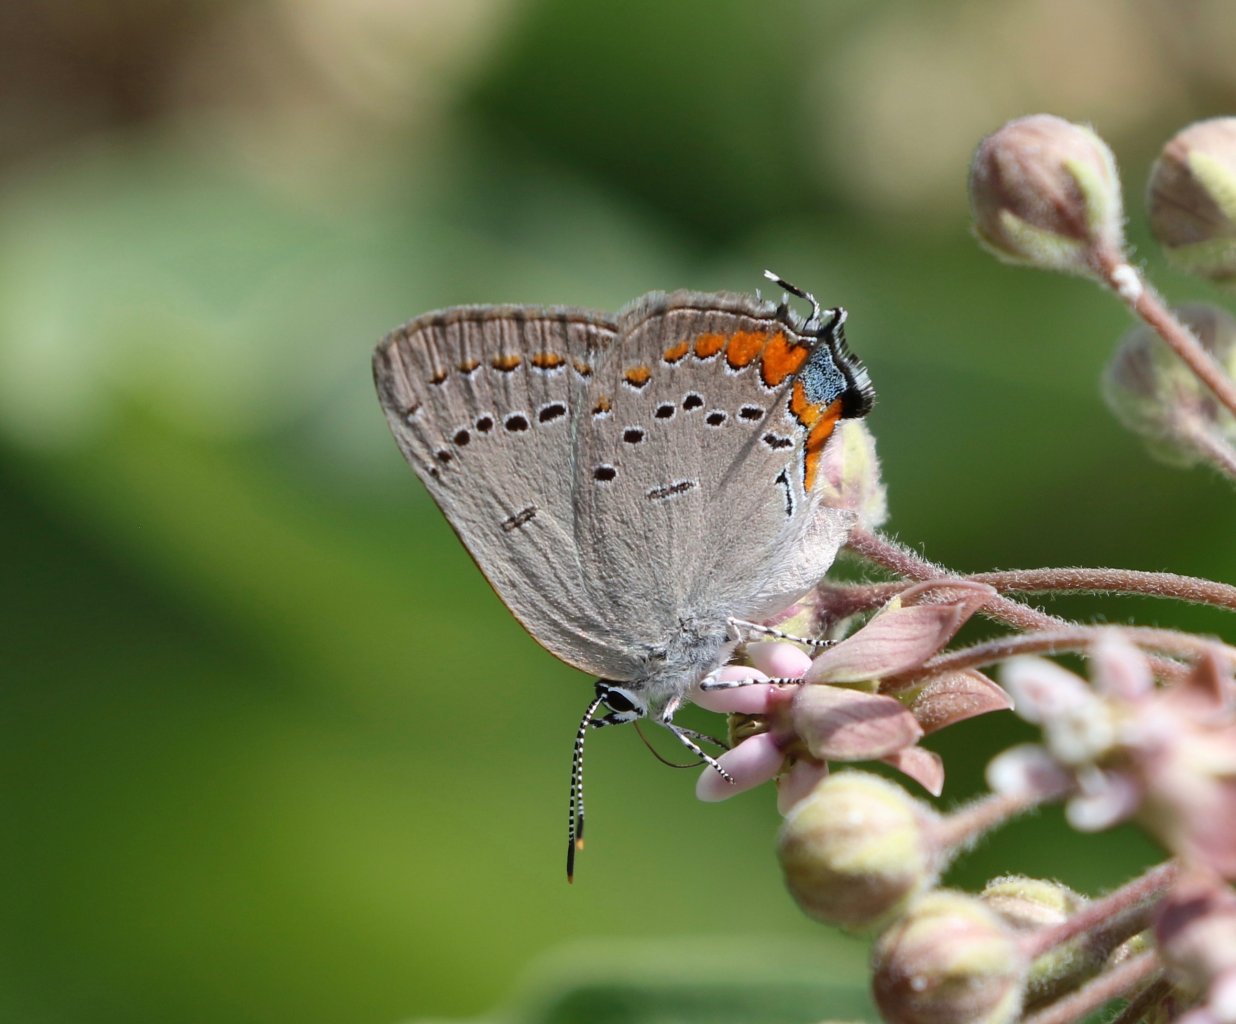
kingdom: Animalia
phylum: Arthropoda
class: Insecta
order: Lepidoptera
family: Lycaenidae
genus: Strymon
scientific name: Strymon acadica
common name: Acadian Hairstreak
